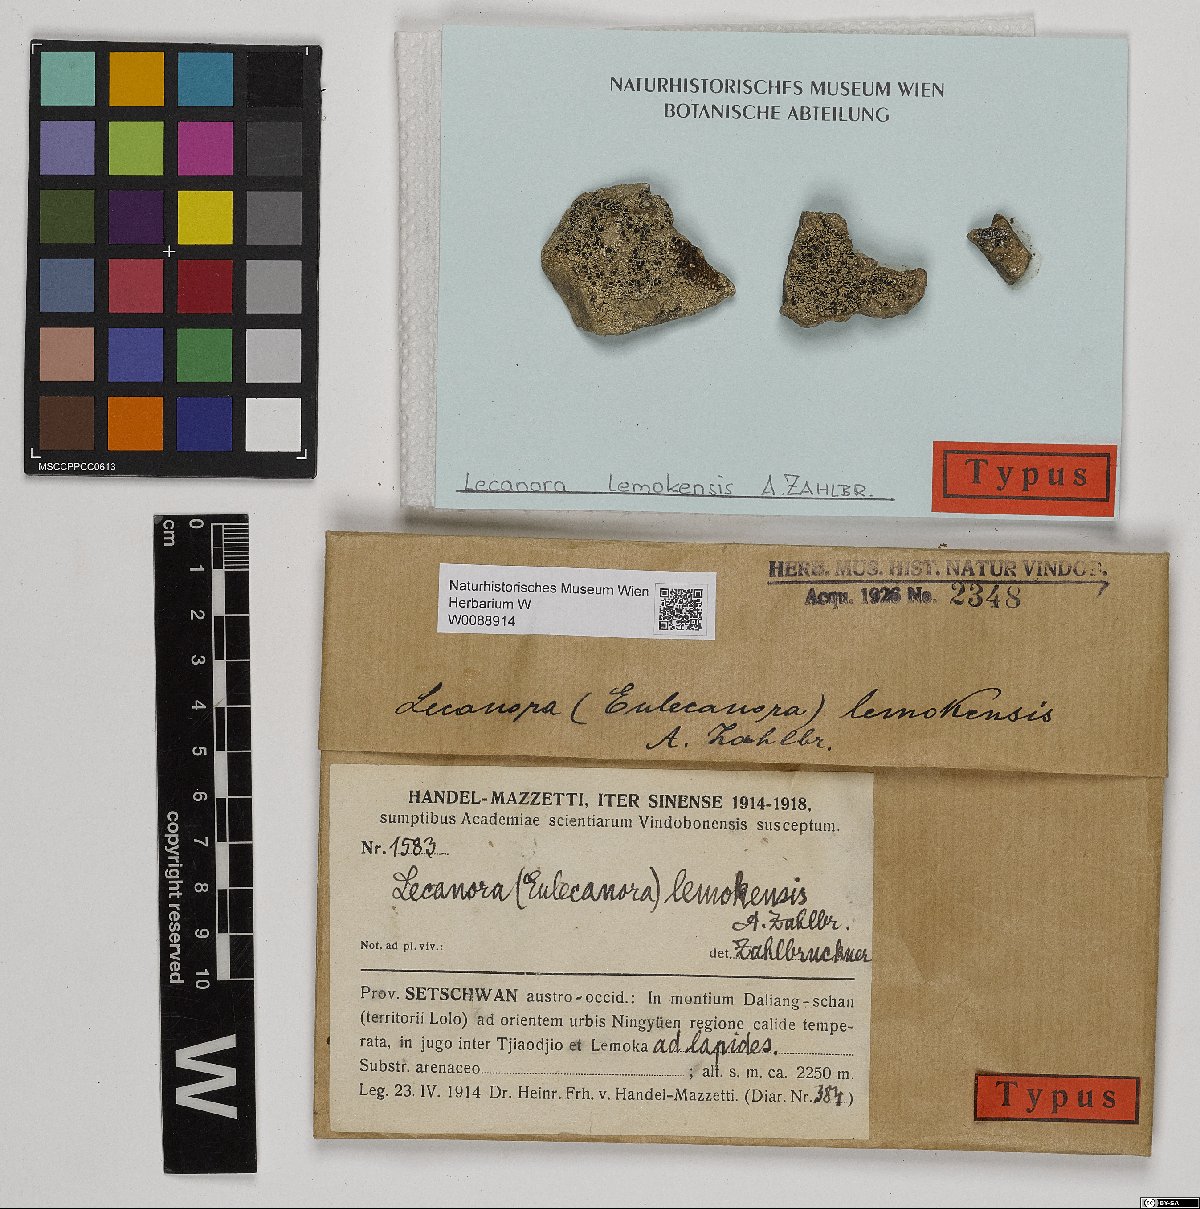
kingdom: Fungi
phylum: Ascomycota
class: Lecanoromycetes
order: Lecanorales
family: Lecanoraceae
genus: Lecanora
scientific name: Lecanora
